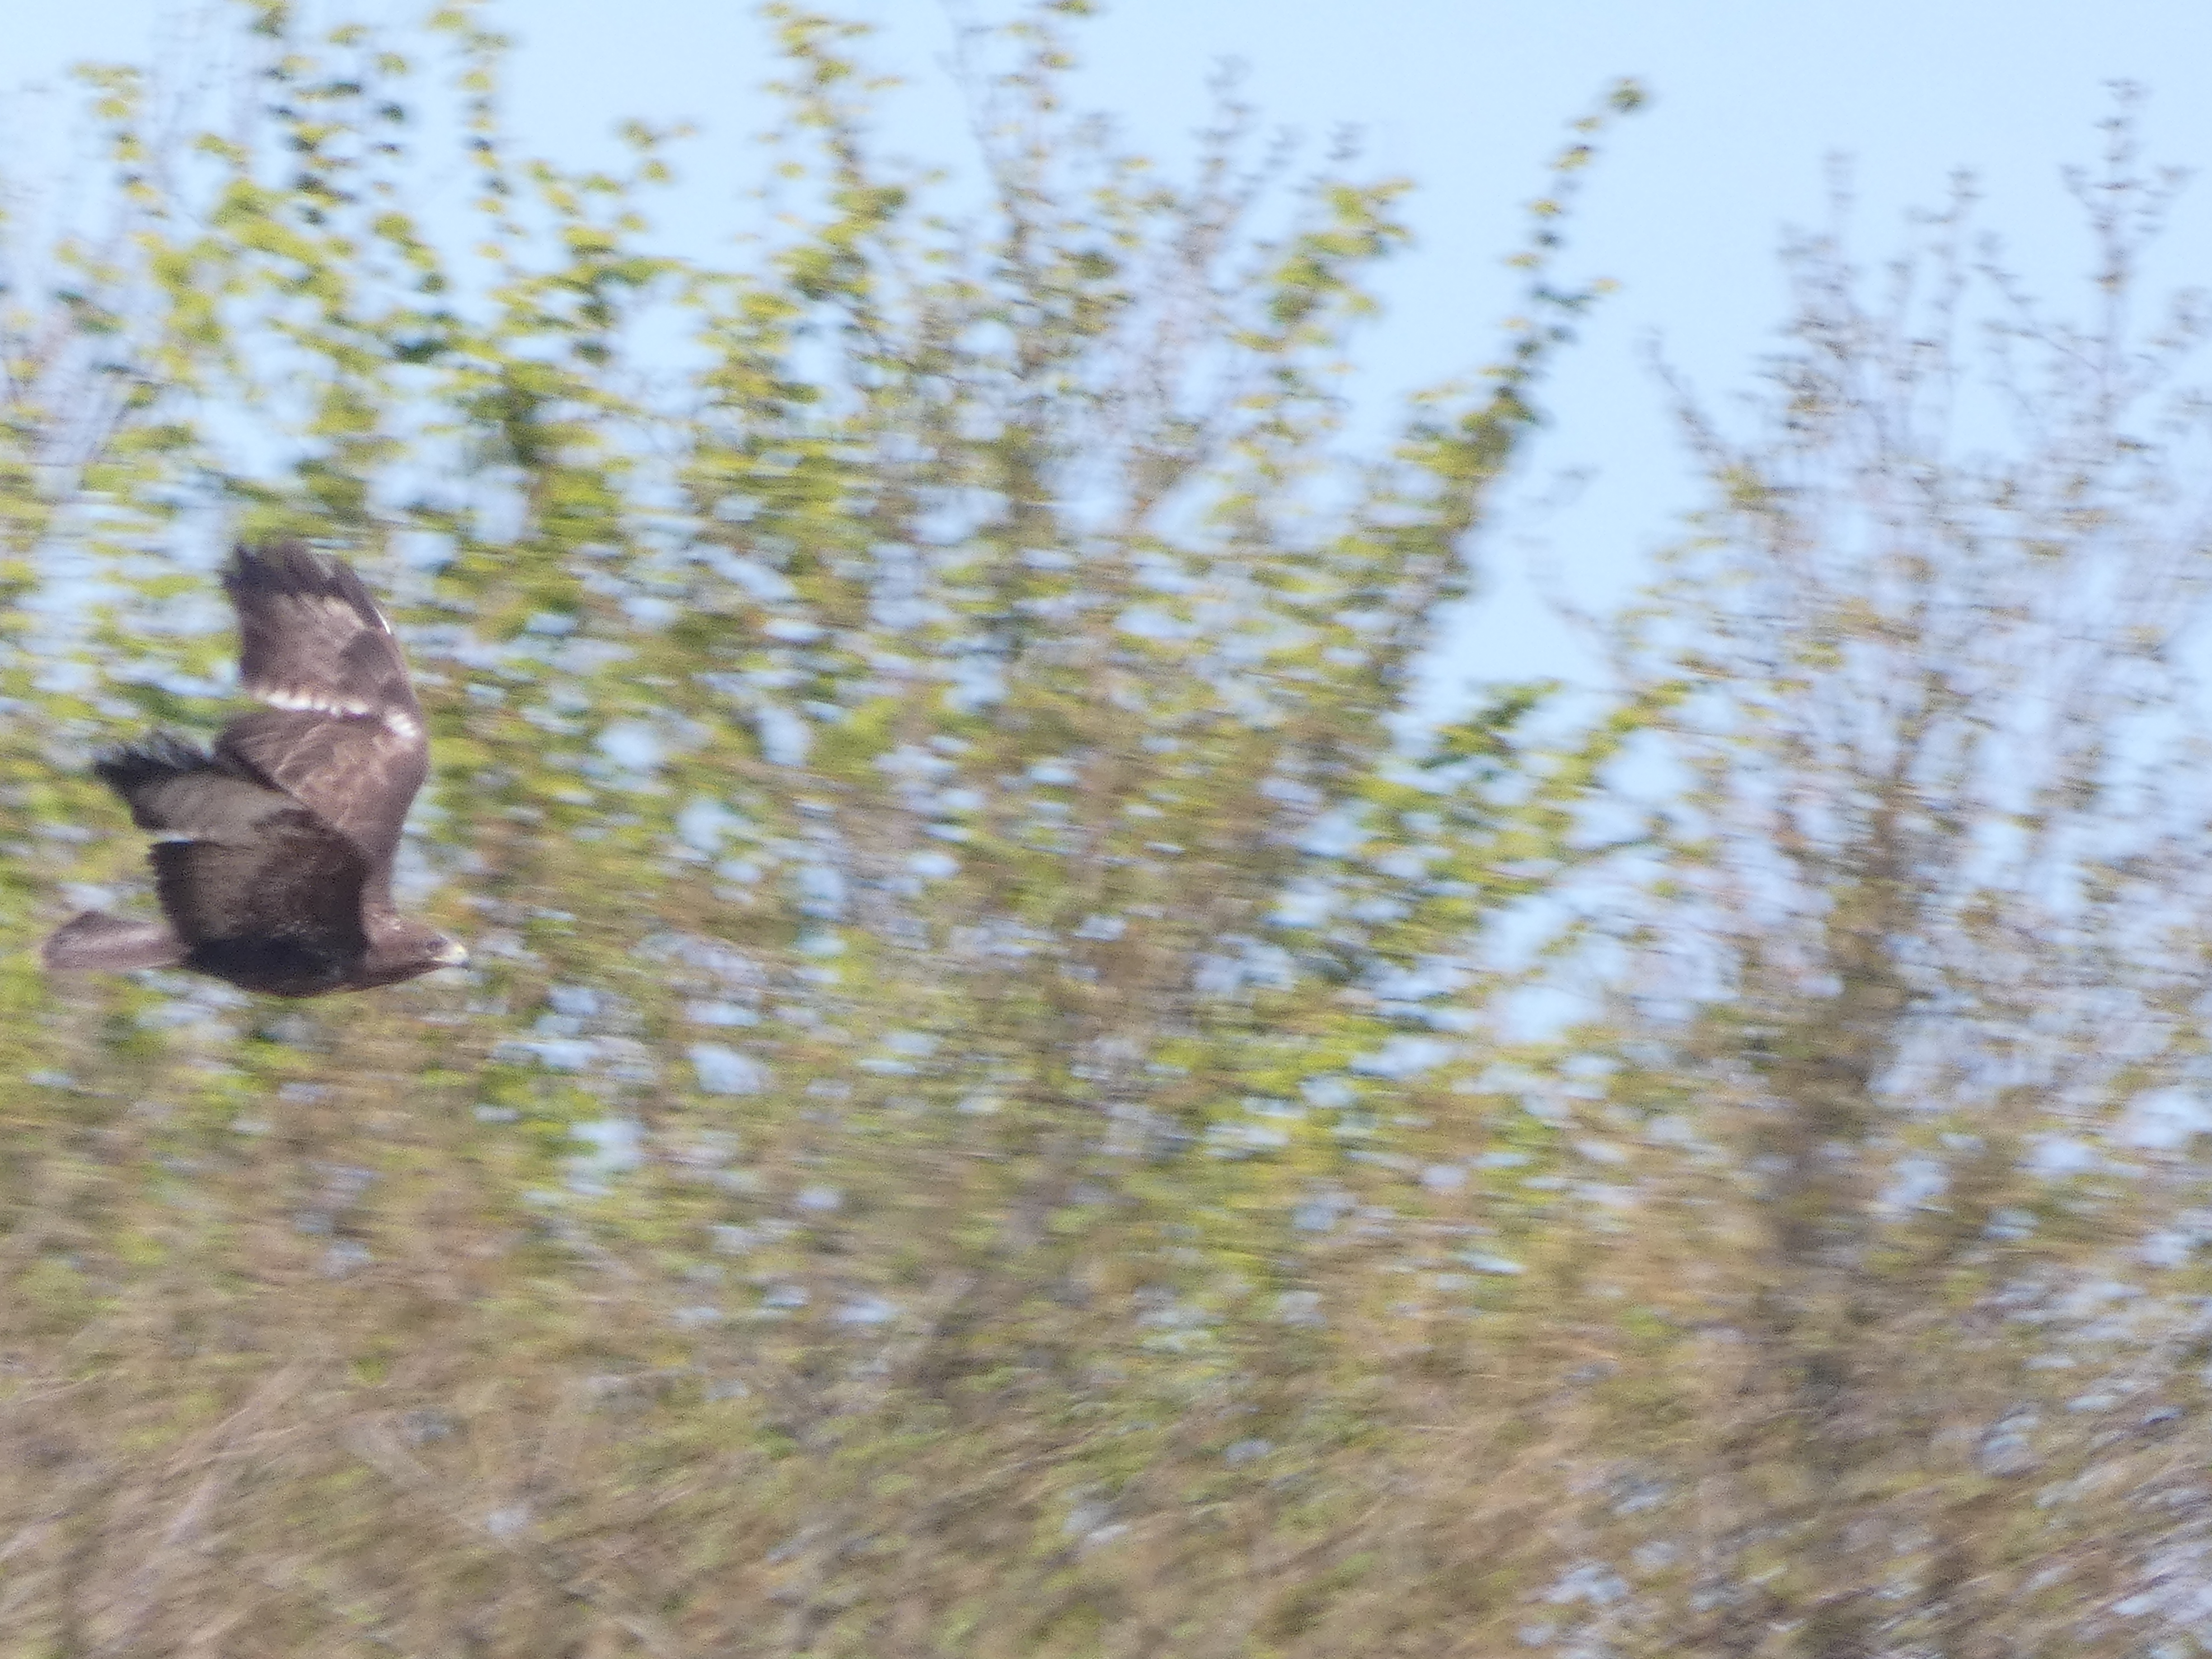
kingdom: Animalia
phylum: Chordata
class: Aves
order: Accipitriformes
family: Accipitridae
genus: Buteo
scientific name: Buteo buteo
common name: Musvåge
